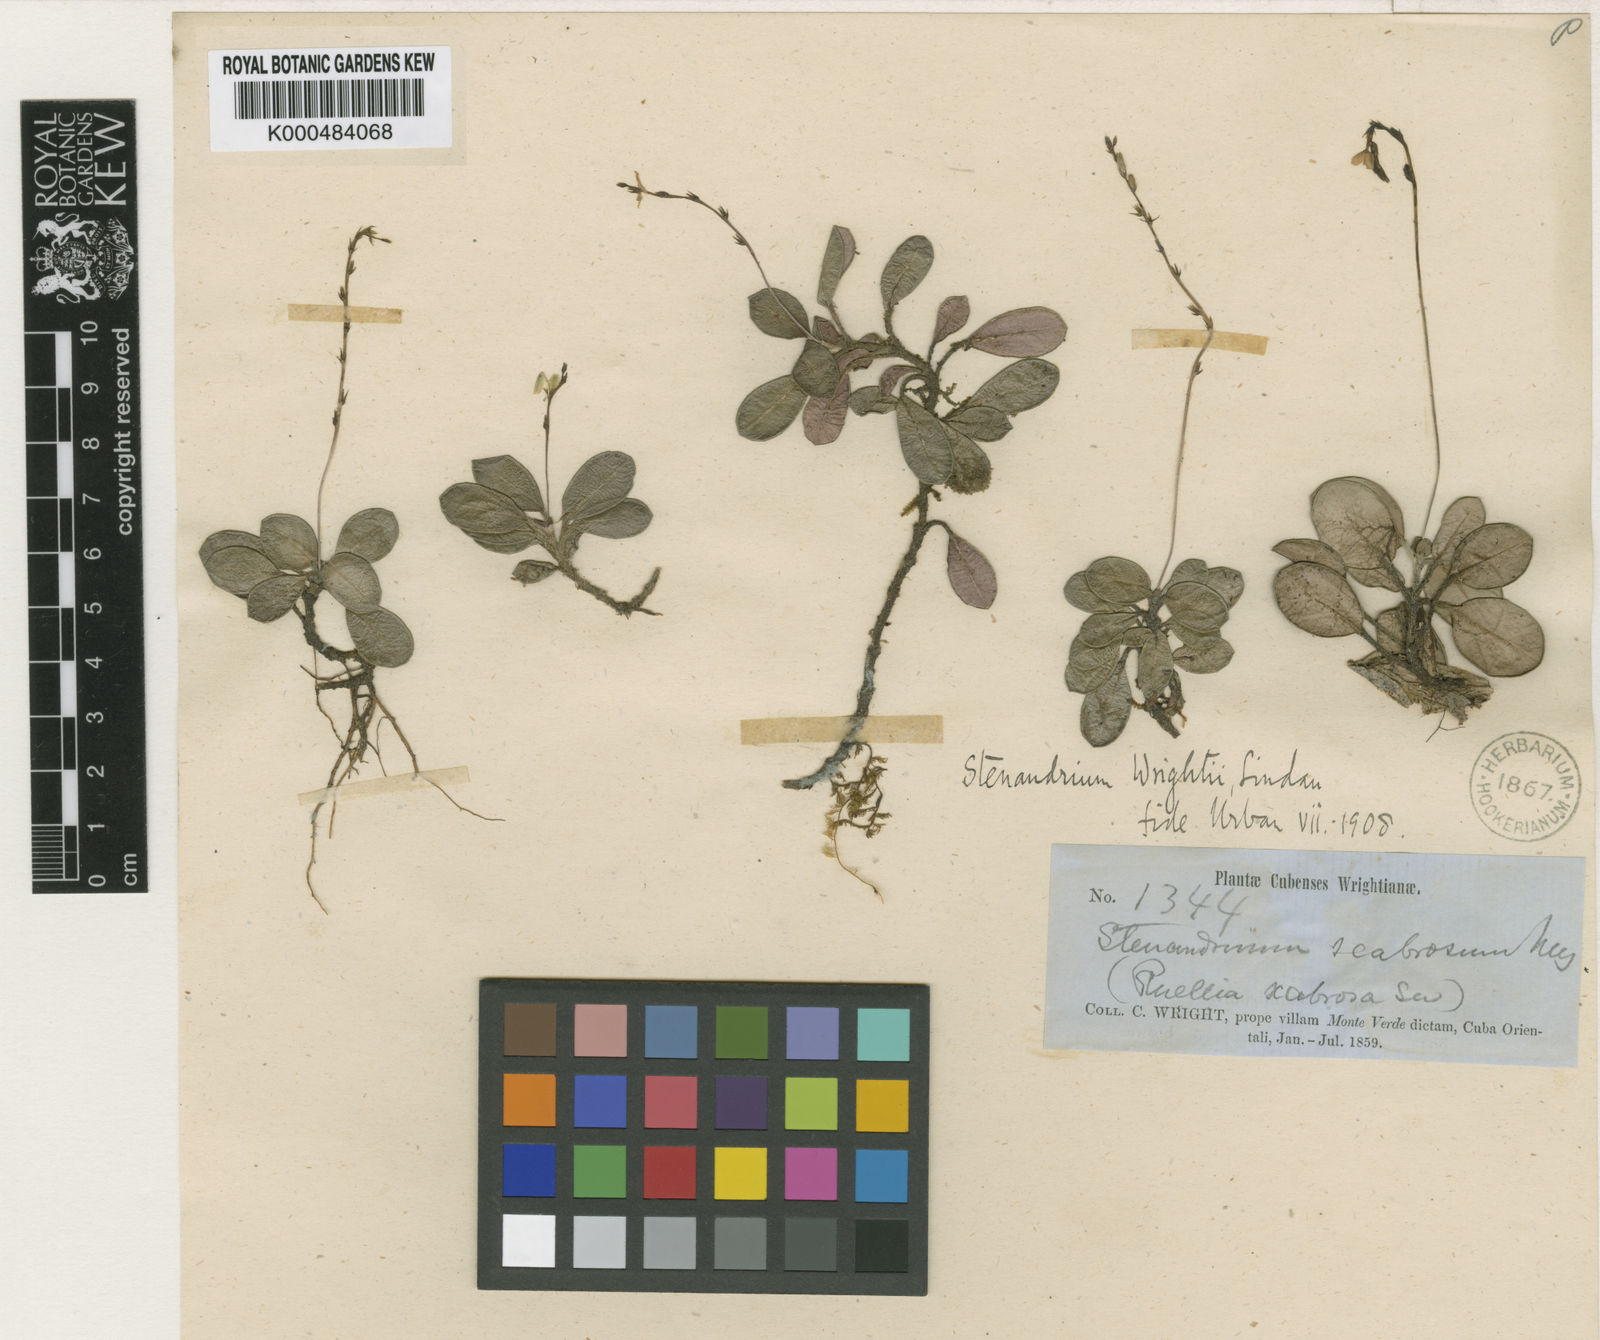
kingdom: Plantae
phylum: Tracheophyta
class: Magnoliopsida
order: Lamiales
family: Acanthaceae
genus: Stenandrium
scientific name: Stenandrium wrightii
